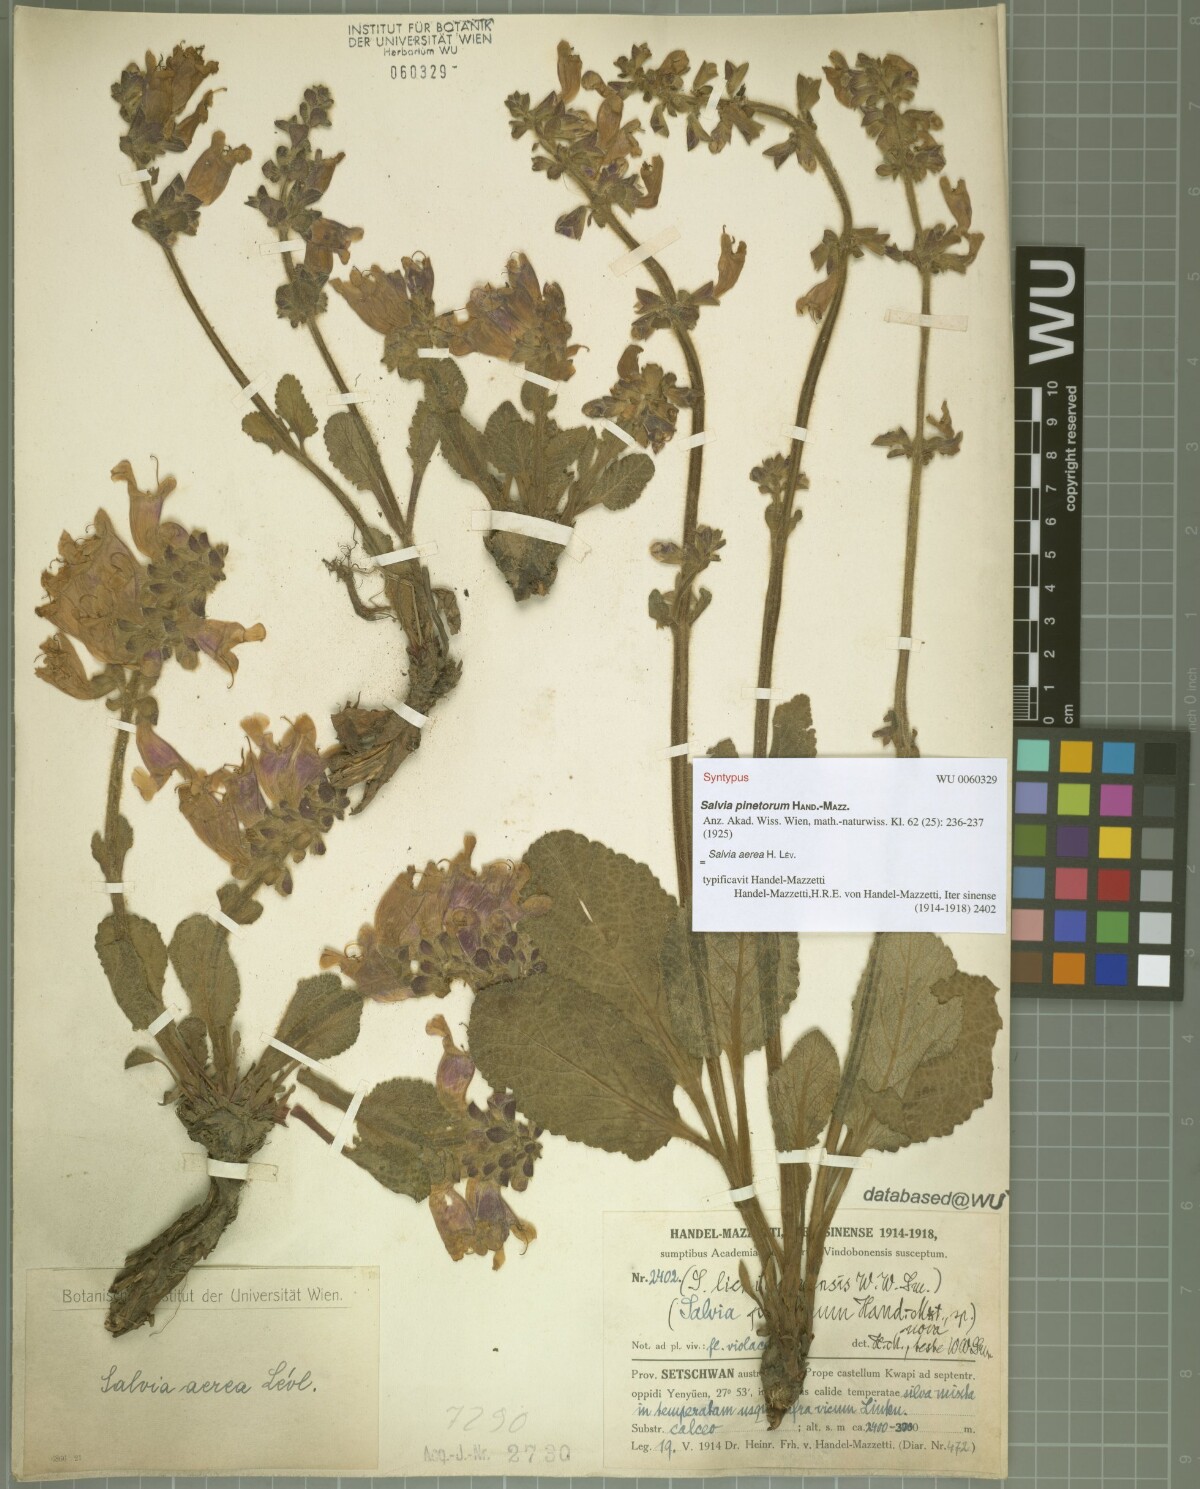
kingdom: Plantae
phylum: Tracheophyta
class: Magnoliopsida
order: Lamiales
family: Lamiaceae
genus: Salvia
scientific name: Salvia aerea
